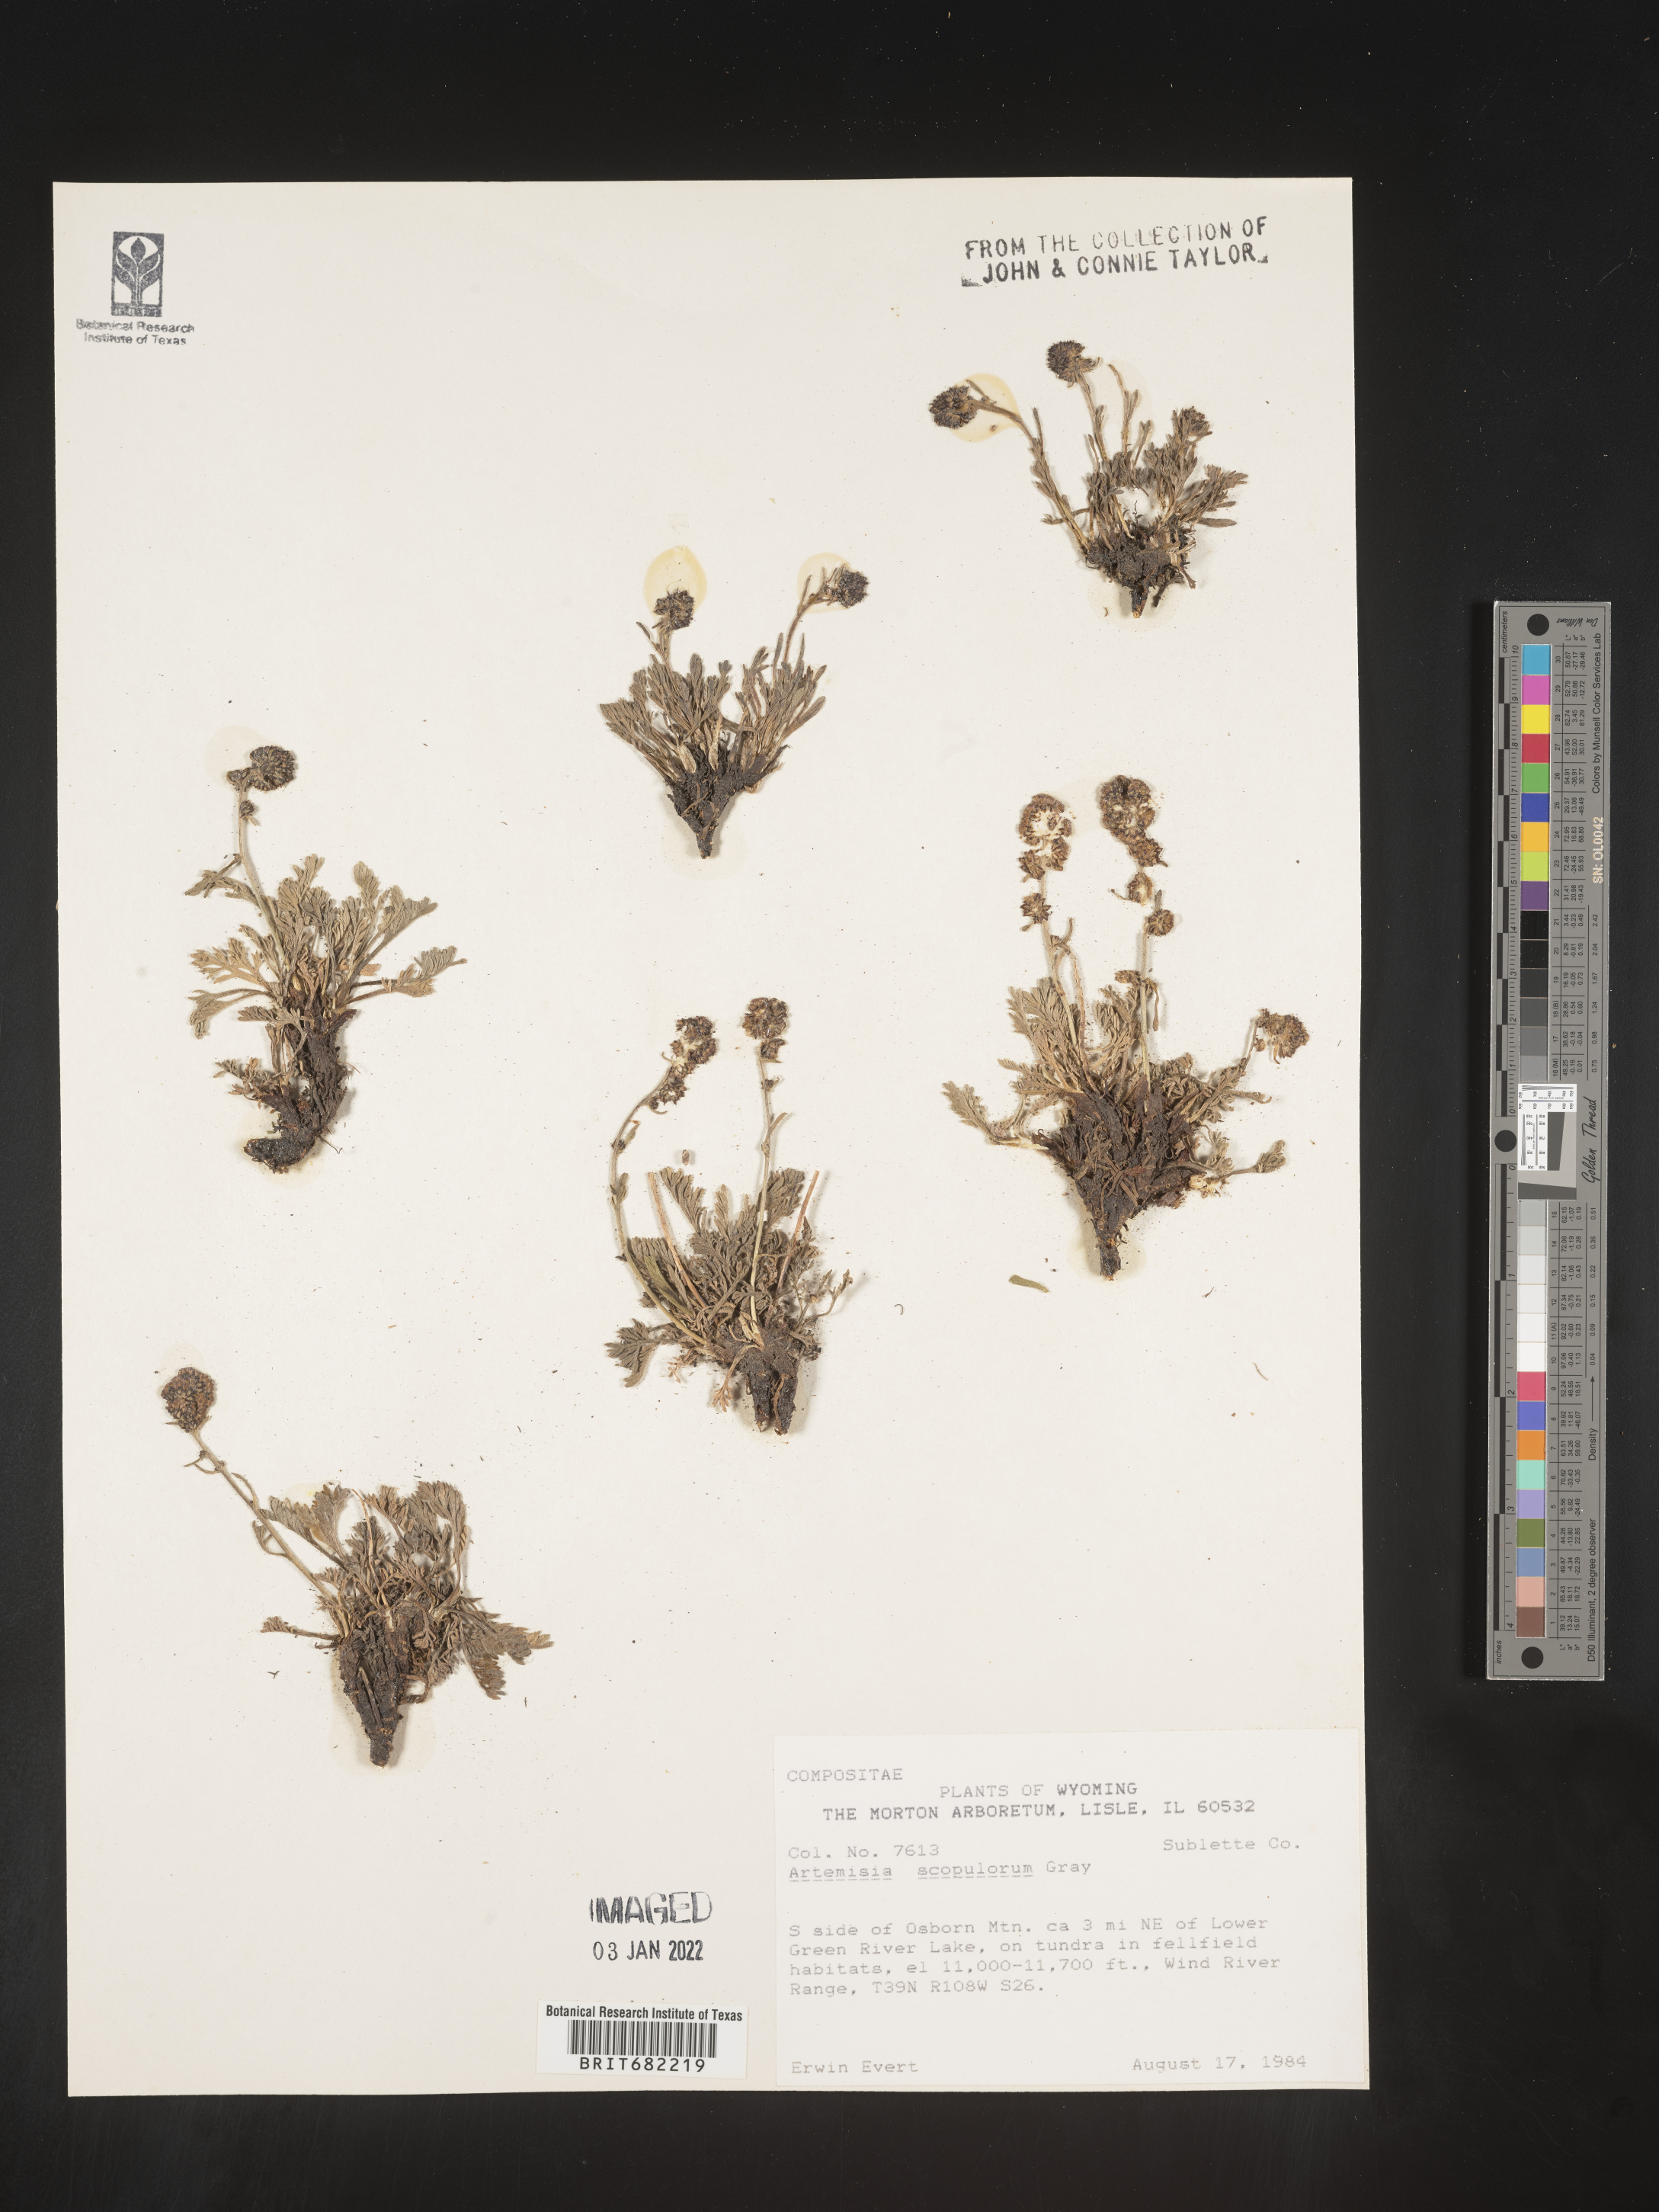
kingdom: Plantae
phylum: Tracheophyta
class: Magnoliopsida
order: Asterales
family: Asteraceae
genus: Artemisia
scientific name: Artemisia scopulorum
